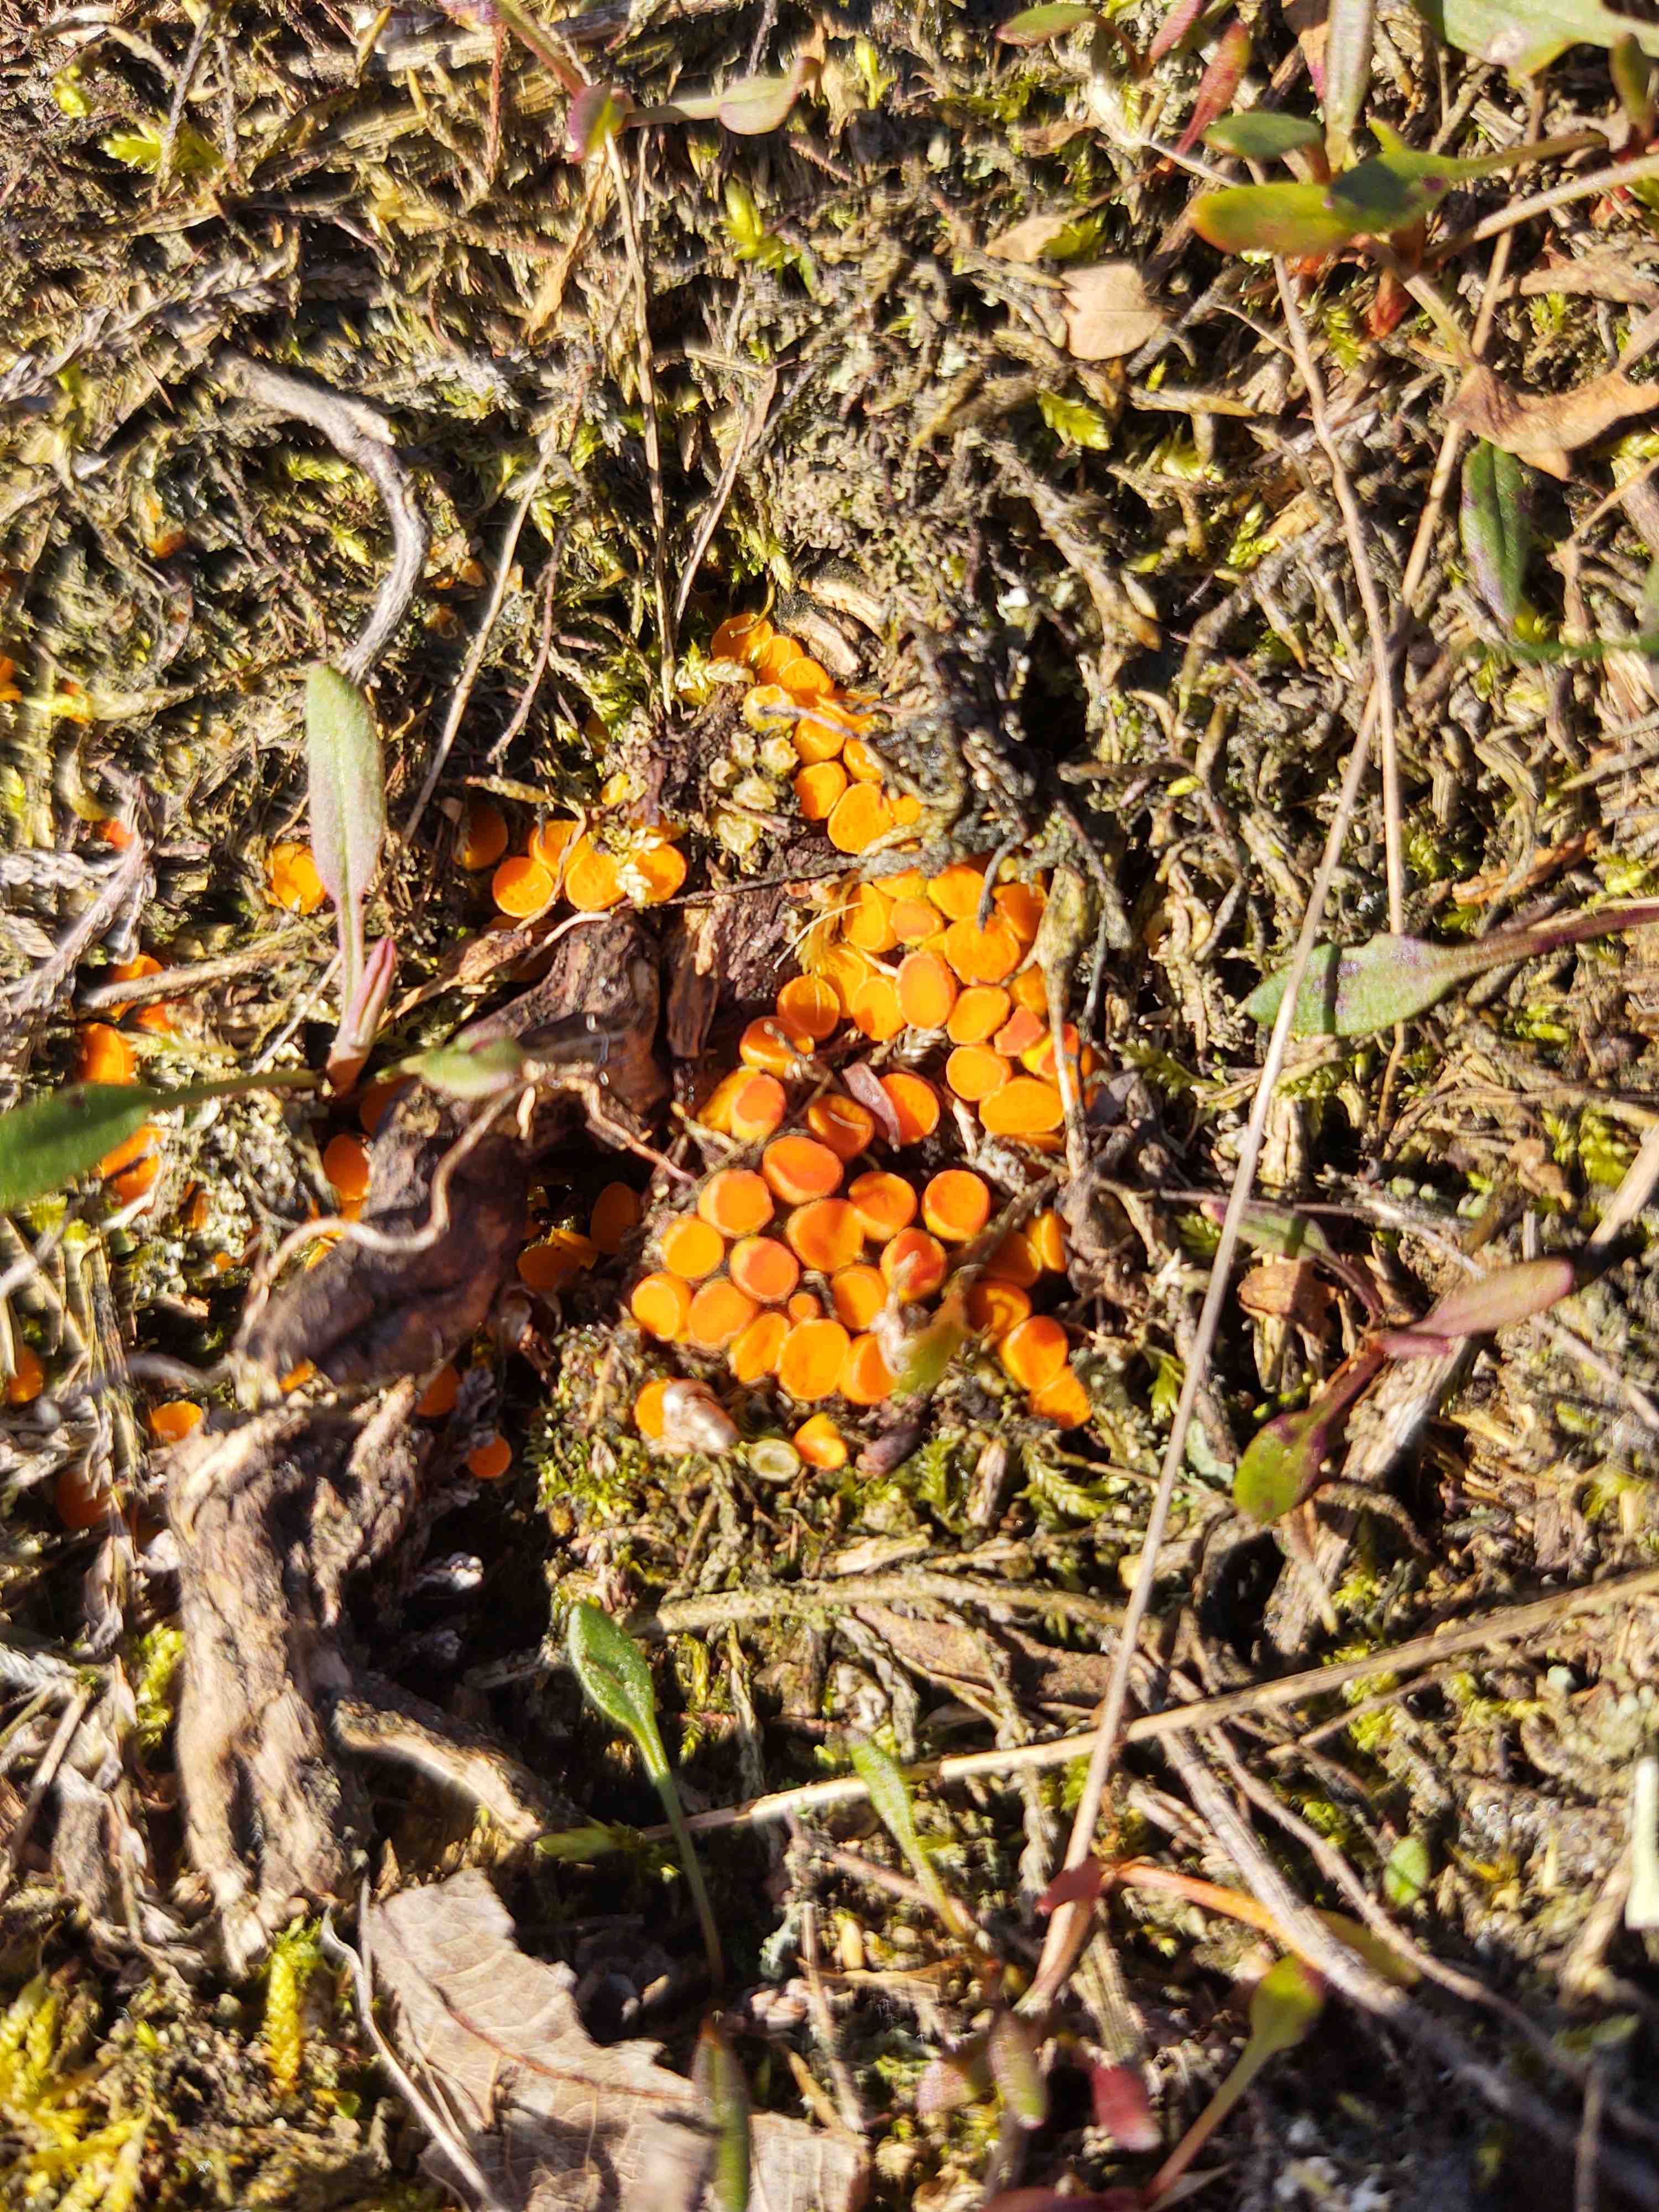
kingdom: Fungi
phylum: Ascomycota
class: Pezizomycetes
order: Pezizales
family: Pyronemataceae
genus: Byssonectria
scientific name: Byssonectria terrestris
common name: hjortebæger
